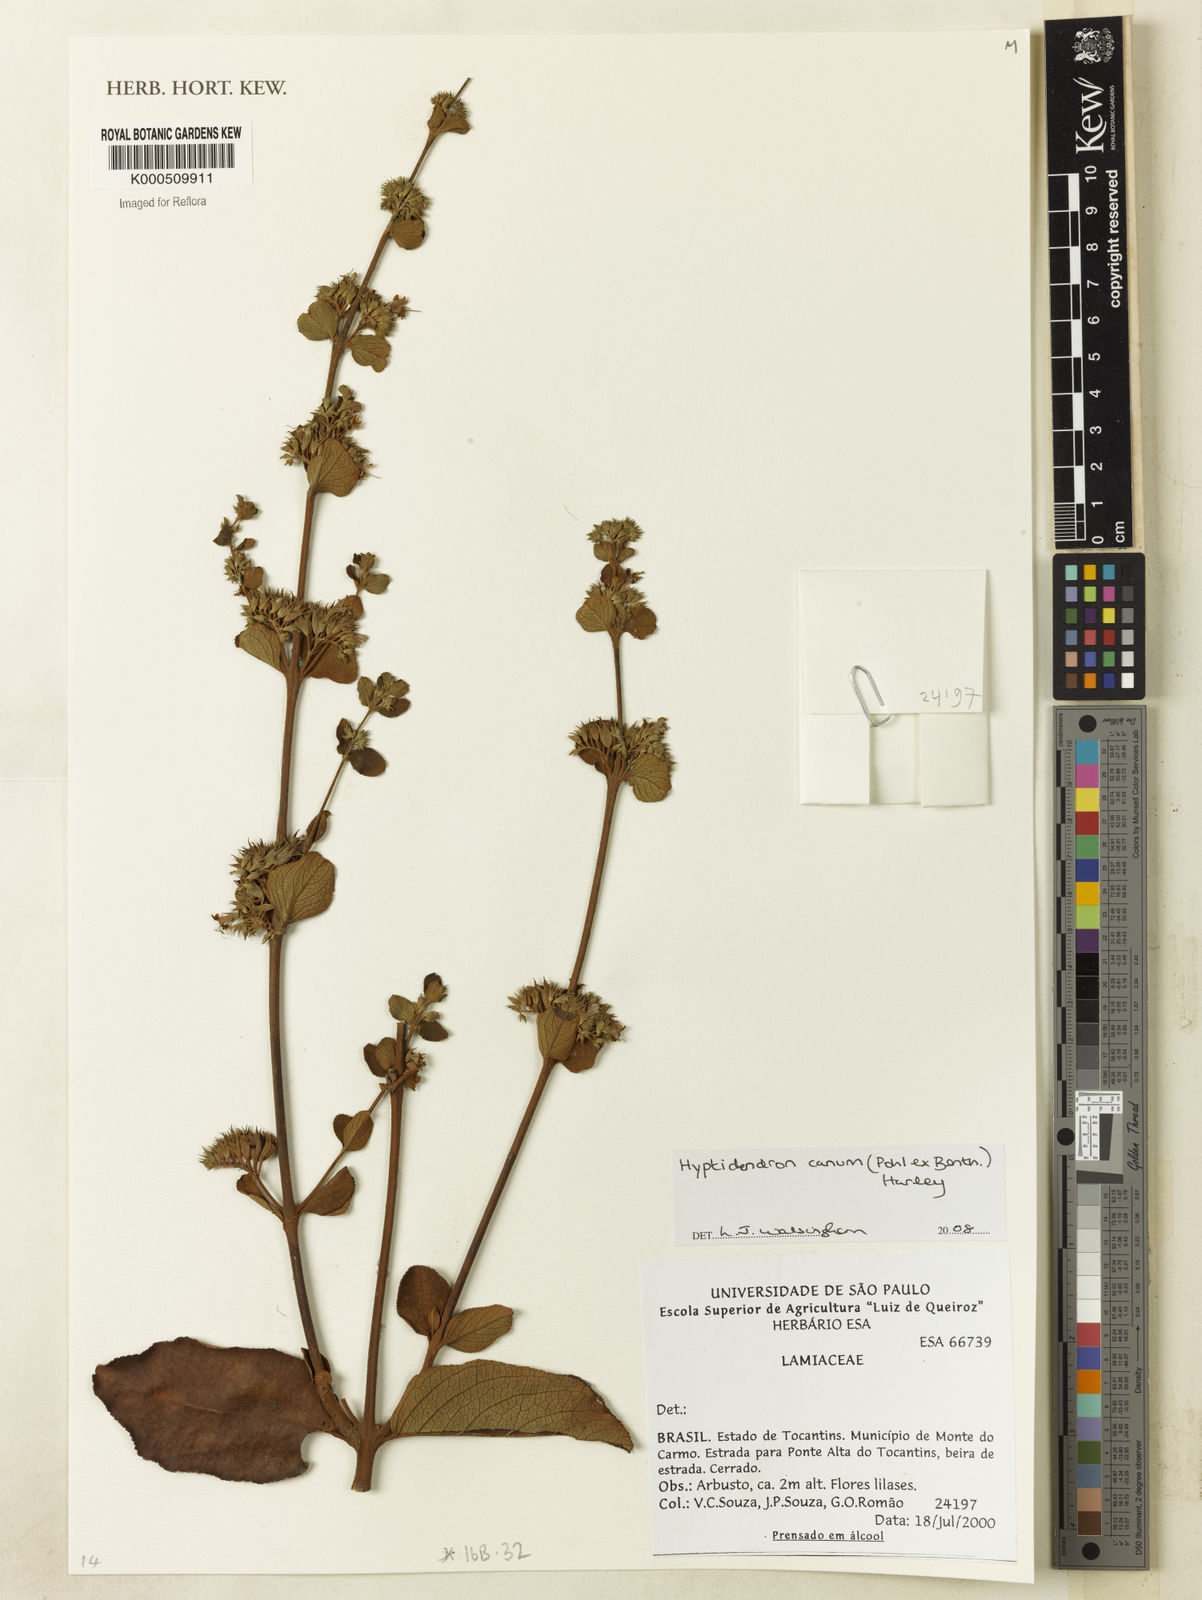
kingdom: Plantae
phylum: Tracheophyta
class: Magnoliopsida
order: Lamiales
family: Lamiaceae
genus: Hyptidendron
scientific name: Hyptidendron canum
